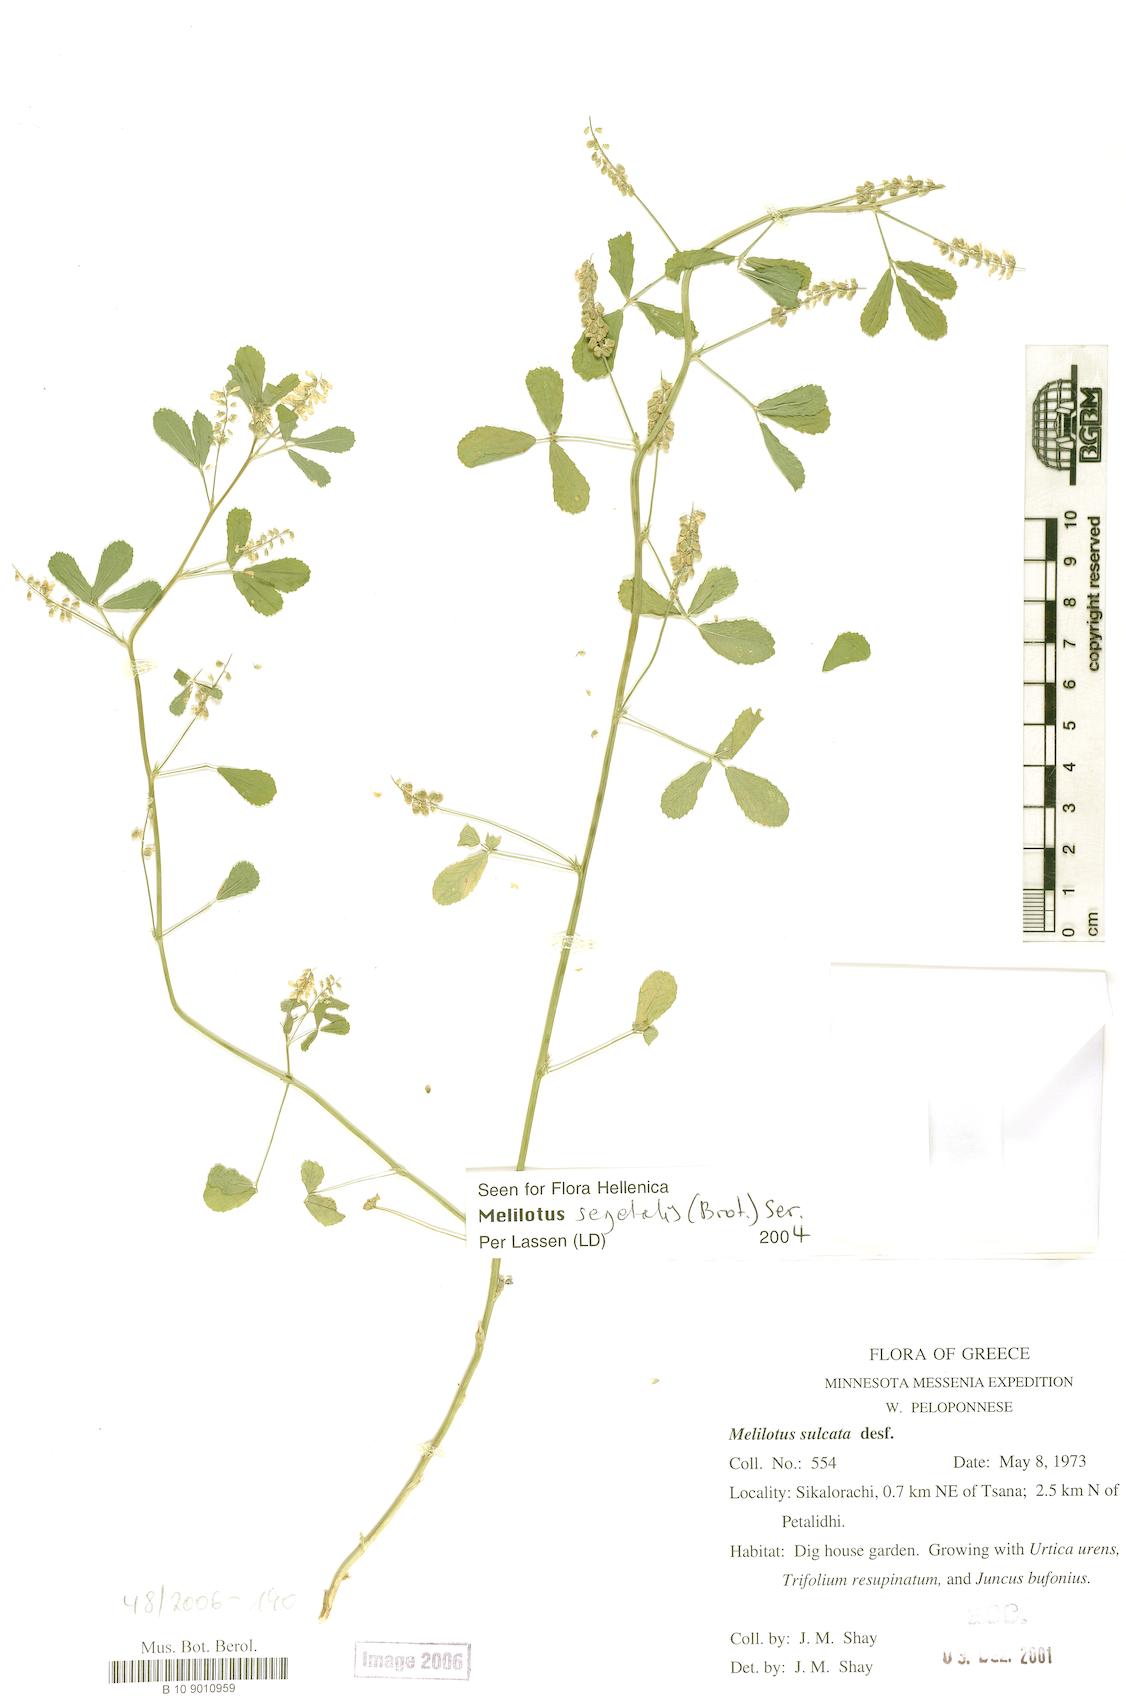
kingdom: Plantae
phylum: Tracheophyta
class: Magnoliopsida
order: Fabales
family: Fabaceae
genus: Melilotus
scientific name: Melilotus segetalis
